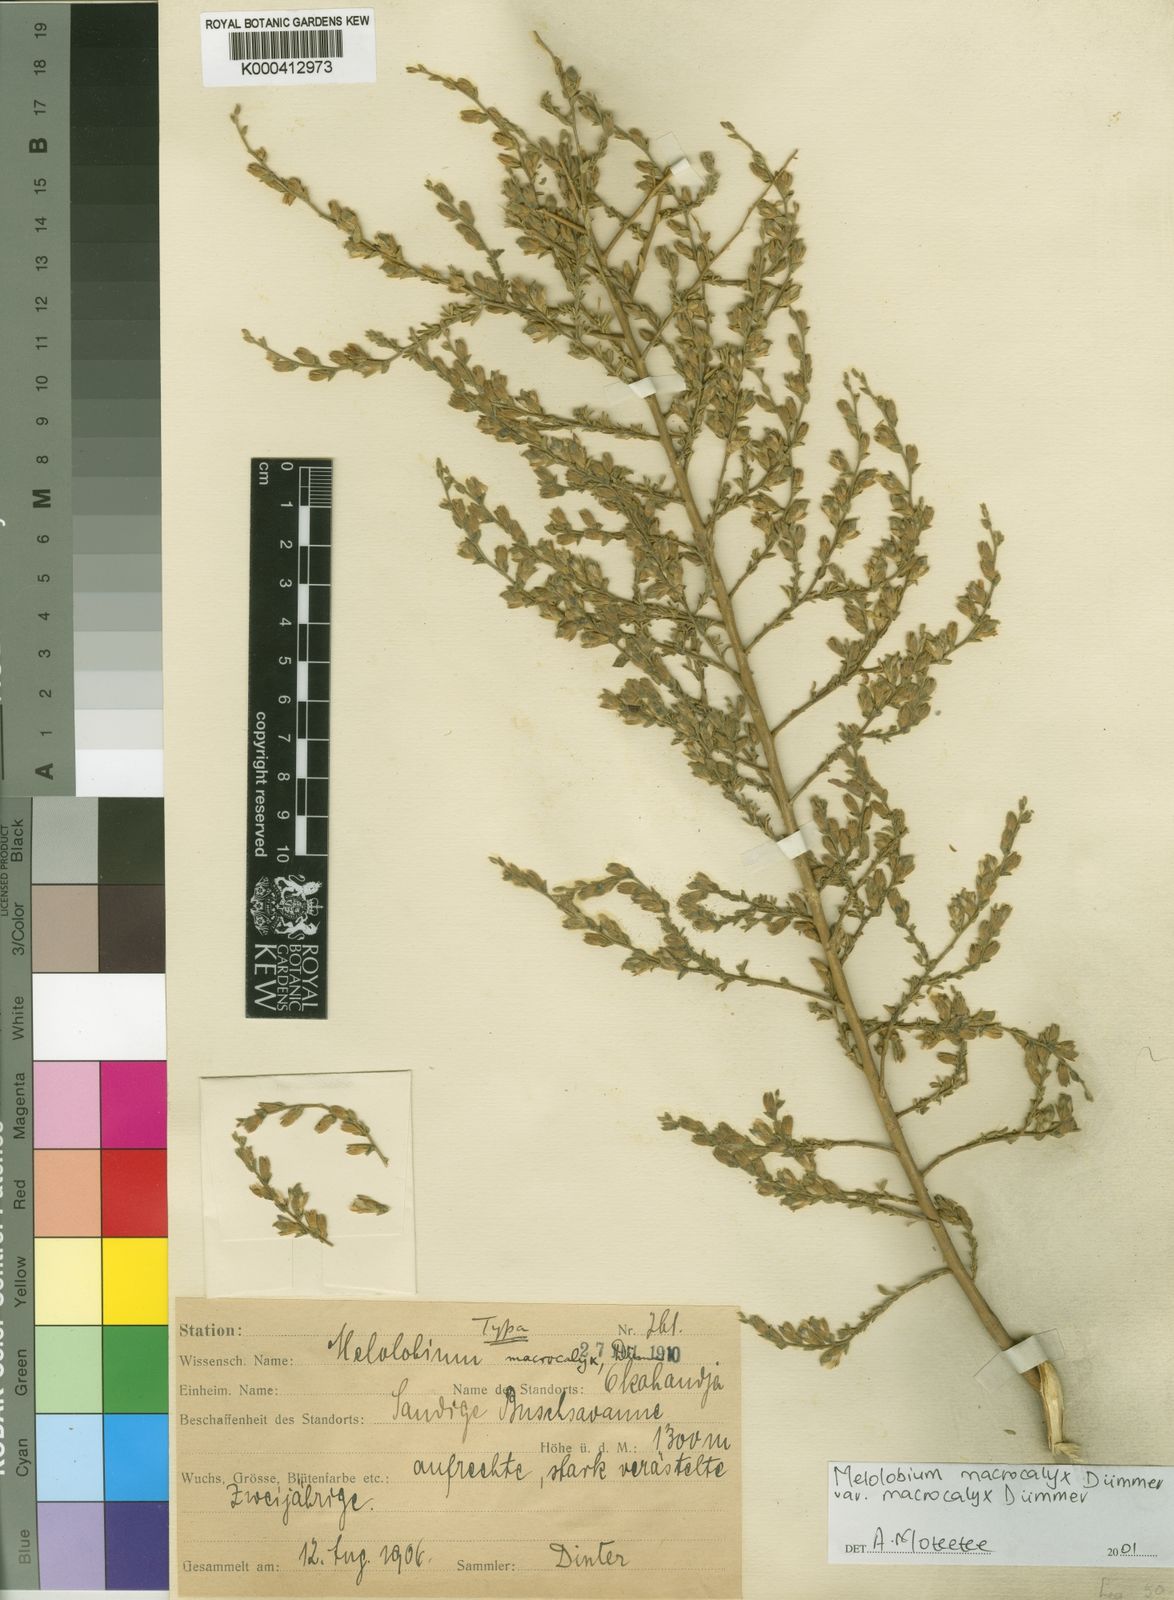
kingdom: Plantae
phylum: Tracheophyta
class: Magnoliopsida
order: Fabales
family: Fabaceae
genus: Melolobium
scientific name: Melolobium macrocalyx
